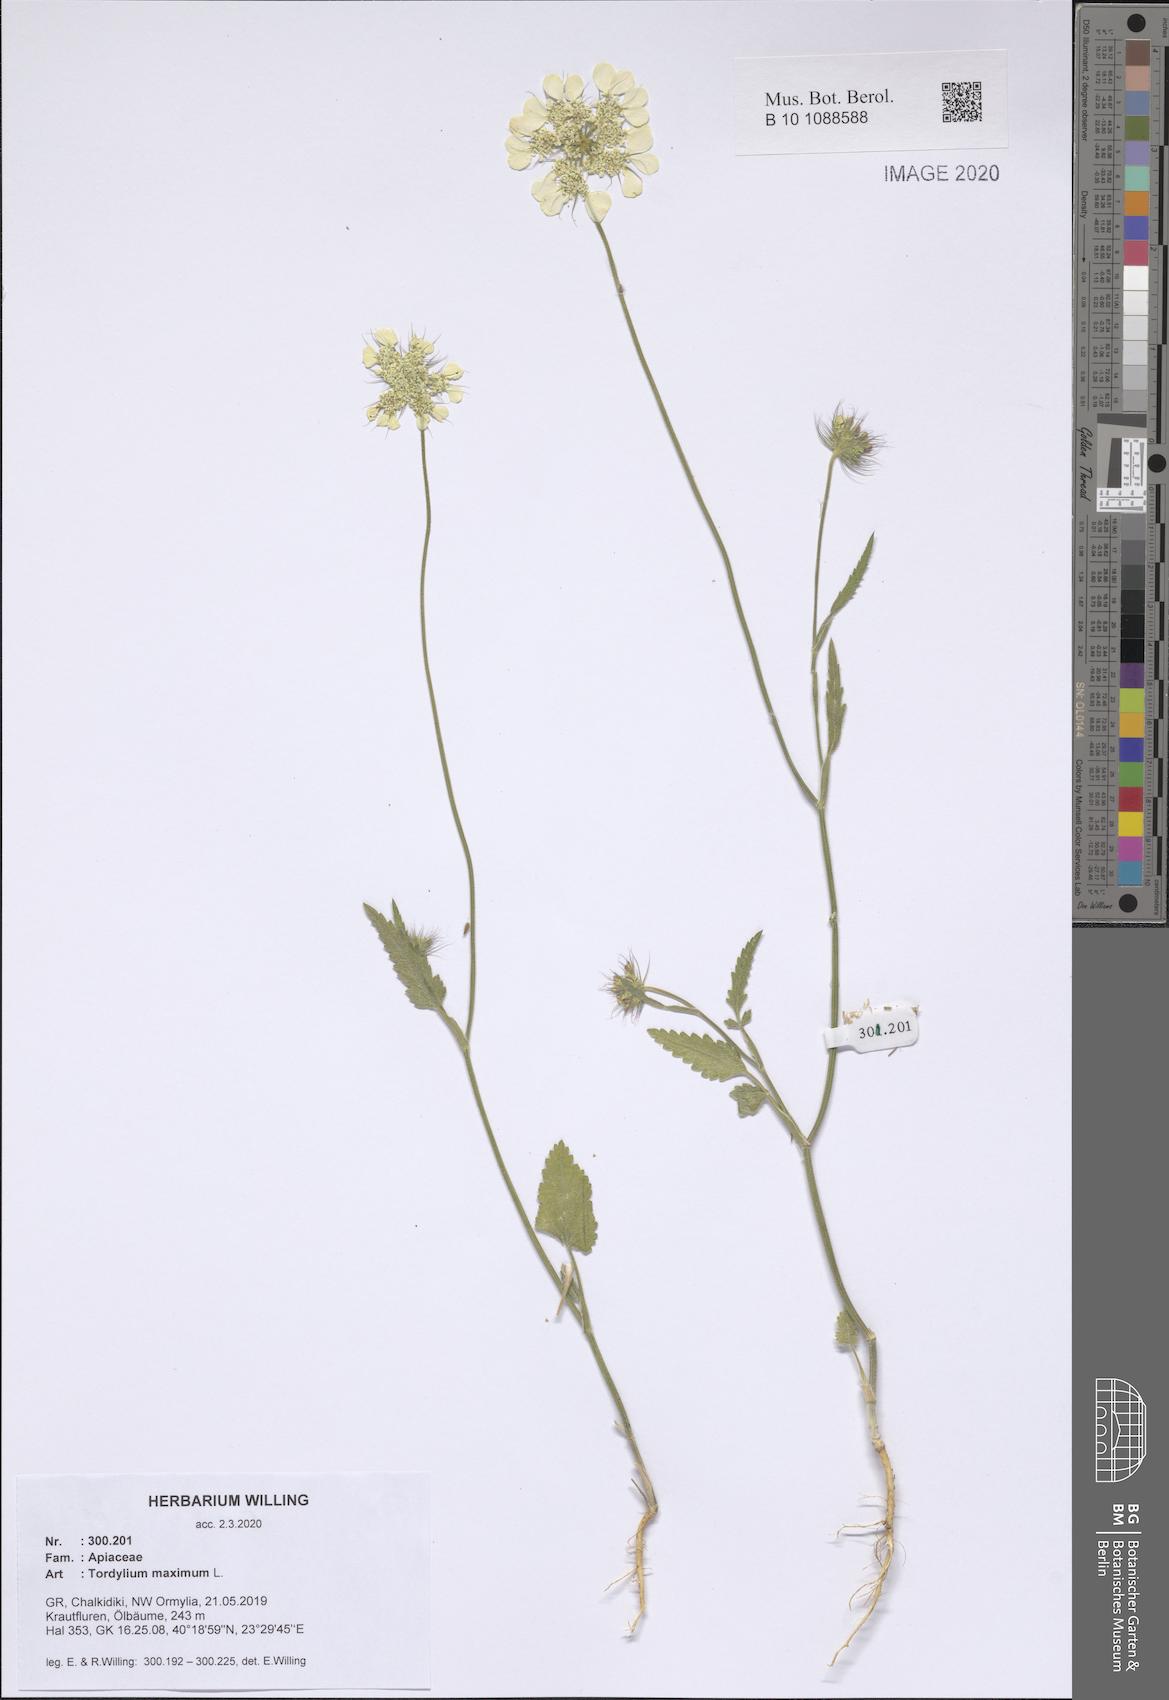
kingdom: Plantae
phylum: Tracheophyta
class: Magnoliopsida
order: Apiales
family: Apiaceae
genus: Tordylium
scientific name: Tordylium maximum
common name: Hartwort
